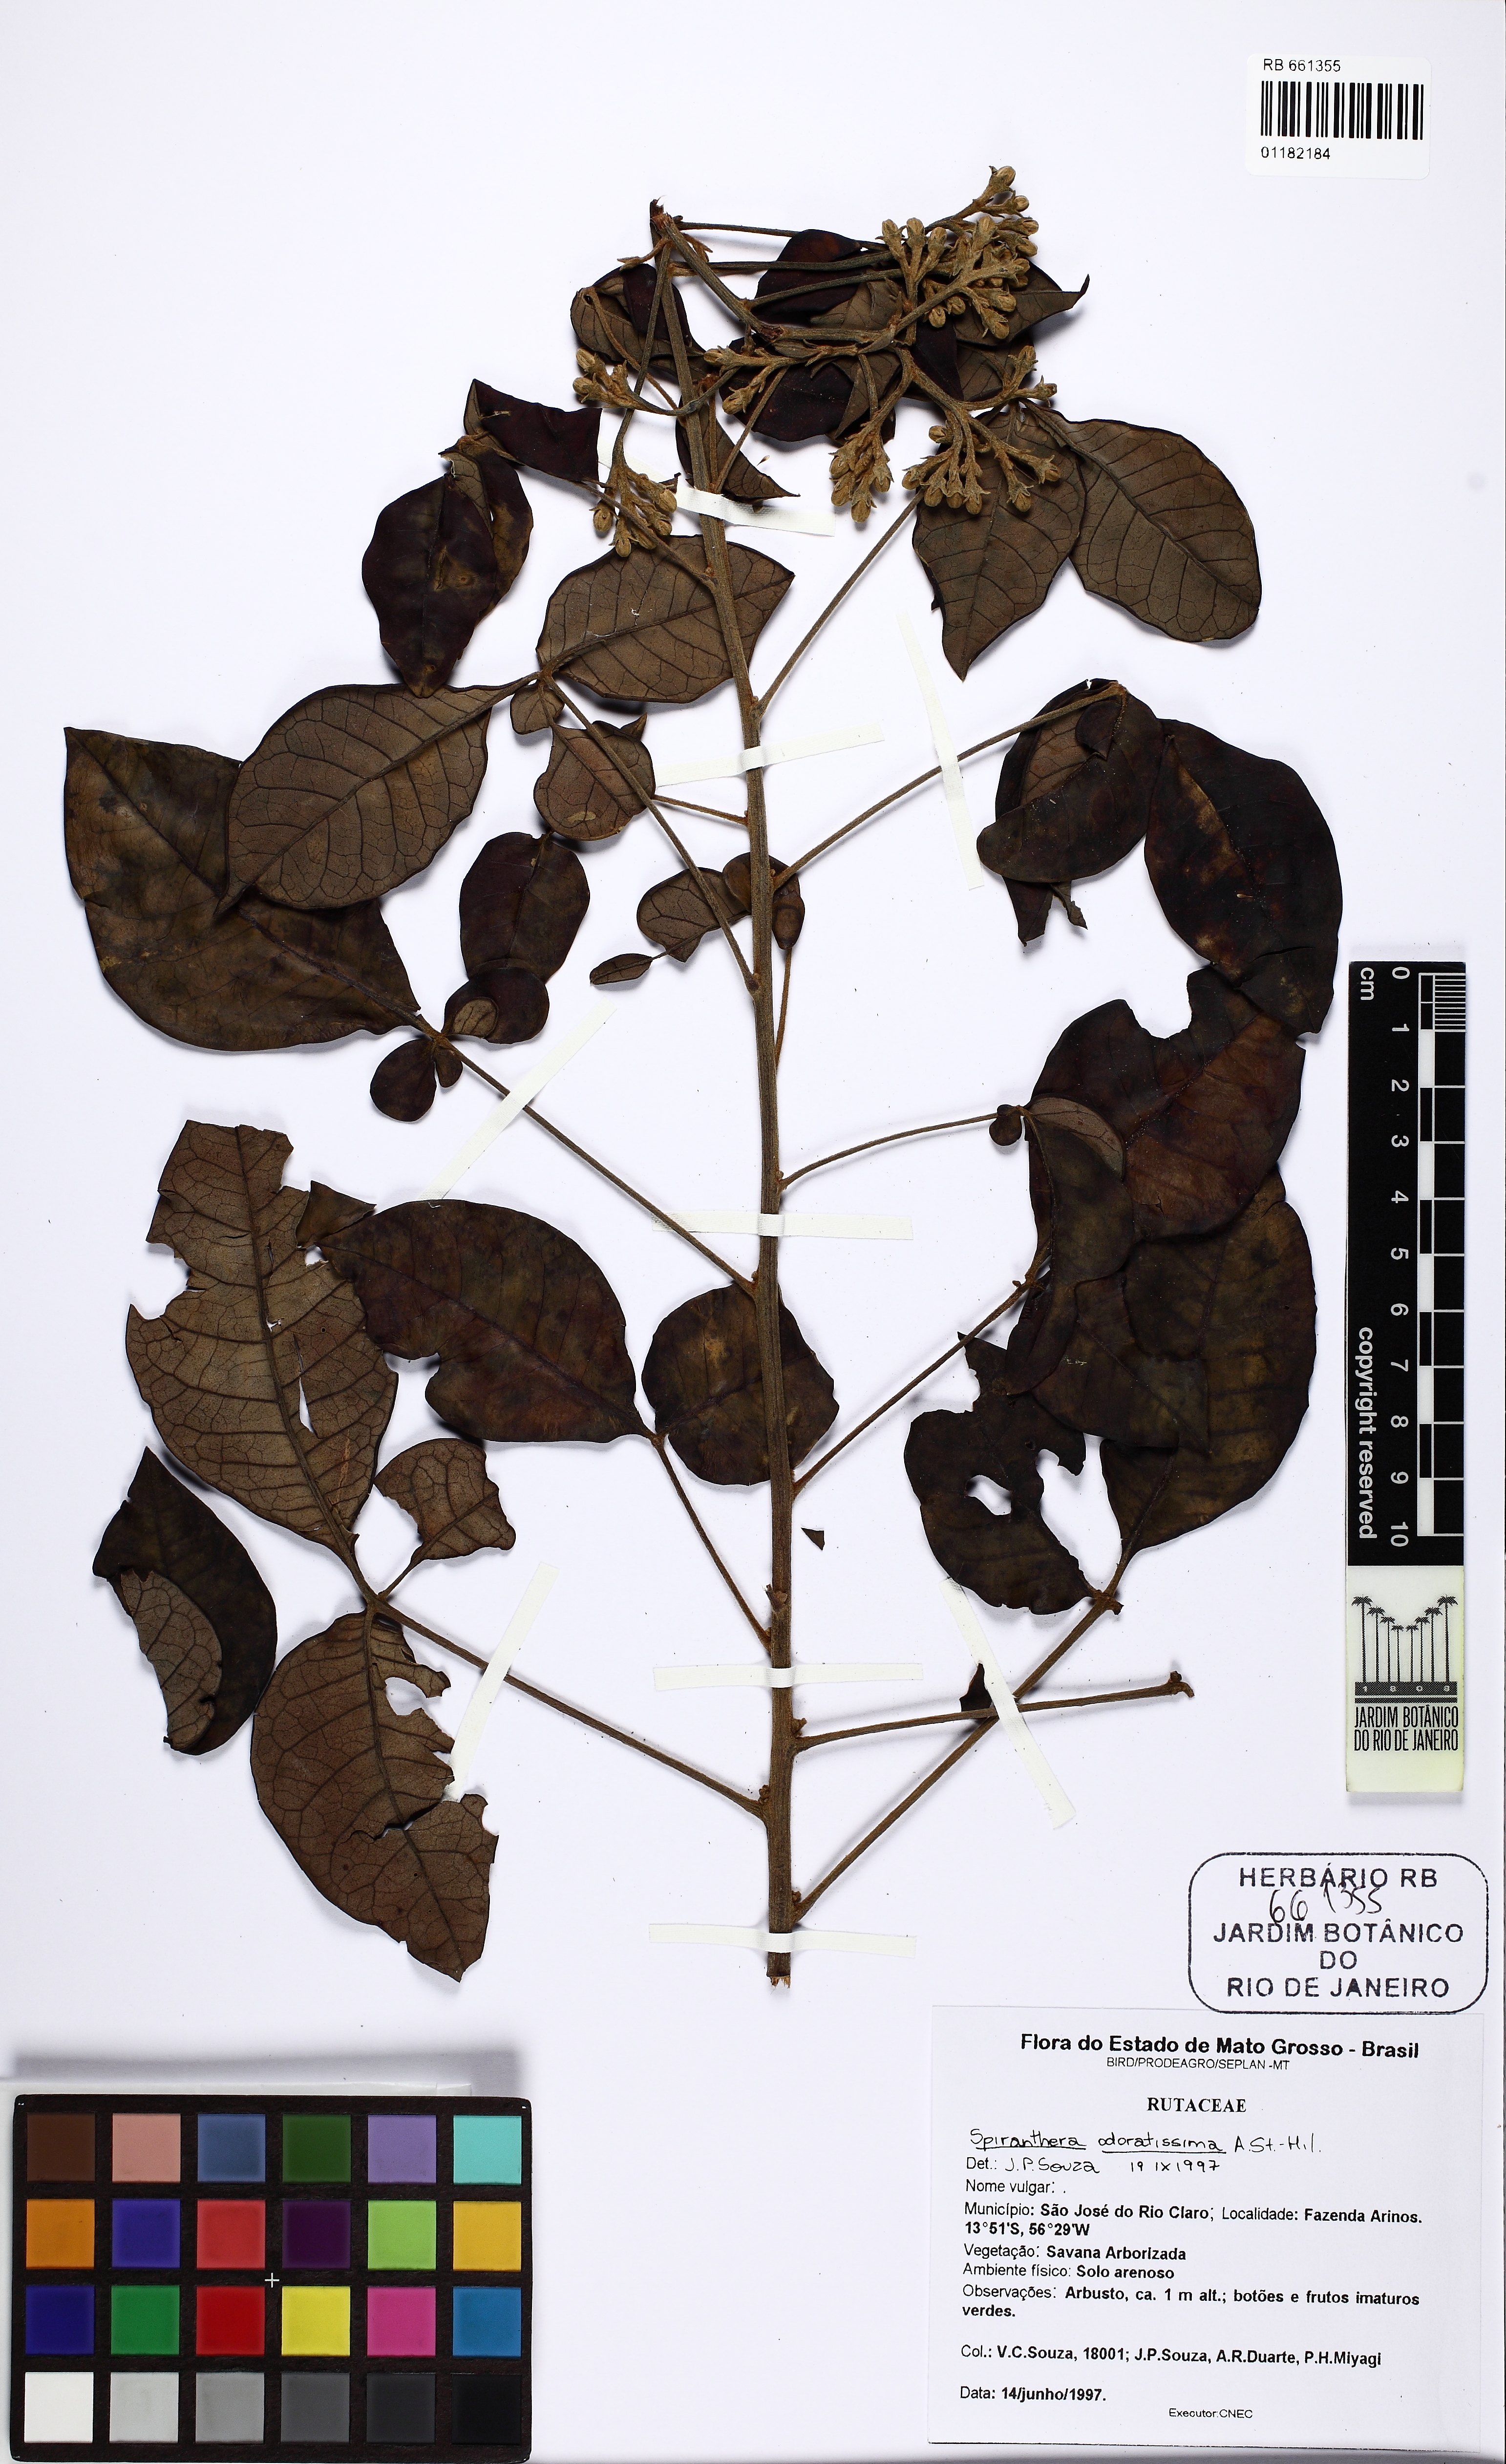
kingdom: Plantae
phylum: Tracheophyta
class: Magnoliopsida
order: Sapindales
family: Rutaceae
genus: Spiranthera
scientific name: Spiranthera odoratissima
